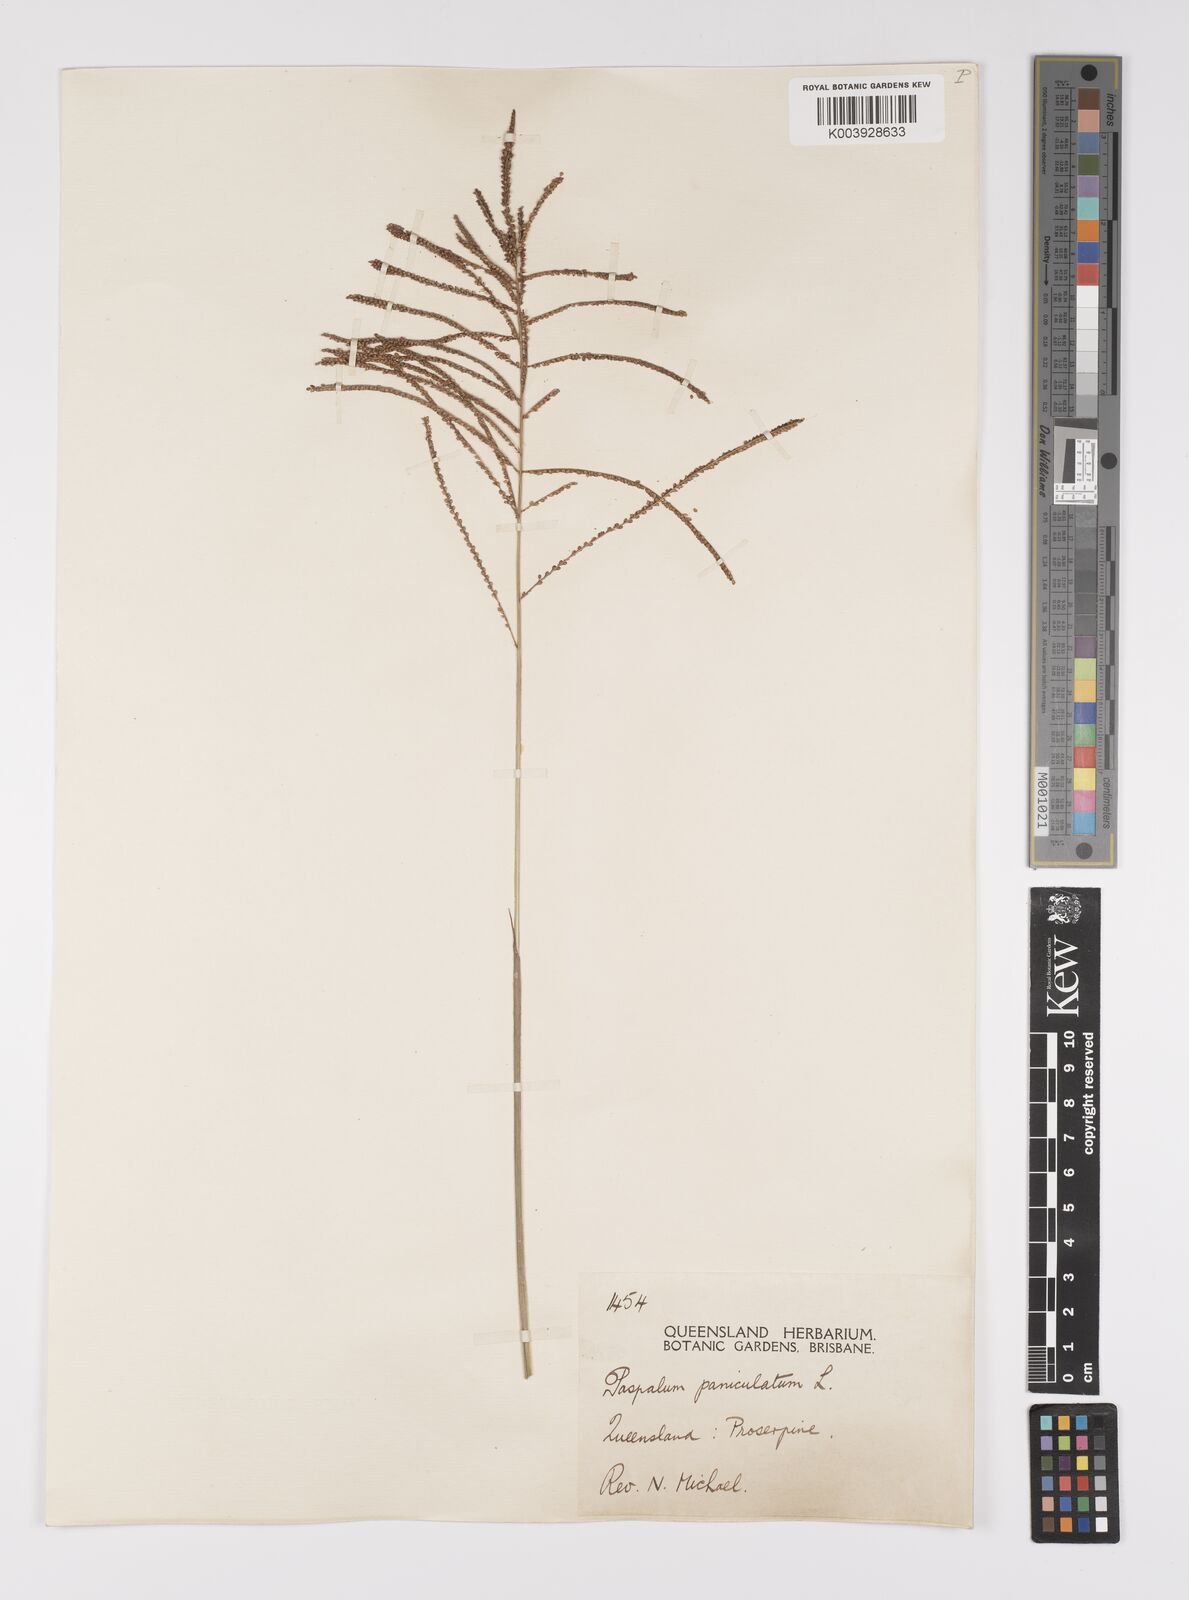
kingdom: Plantae
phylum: Tracheophyta
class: Liliopsida
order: Poales
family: Poaceae
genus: Paspalum
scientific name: Paspalum paniculatum
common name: Arrocillo
